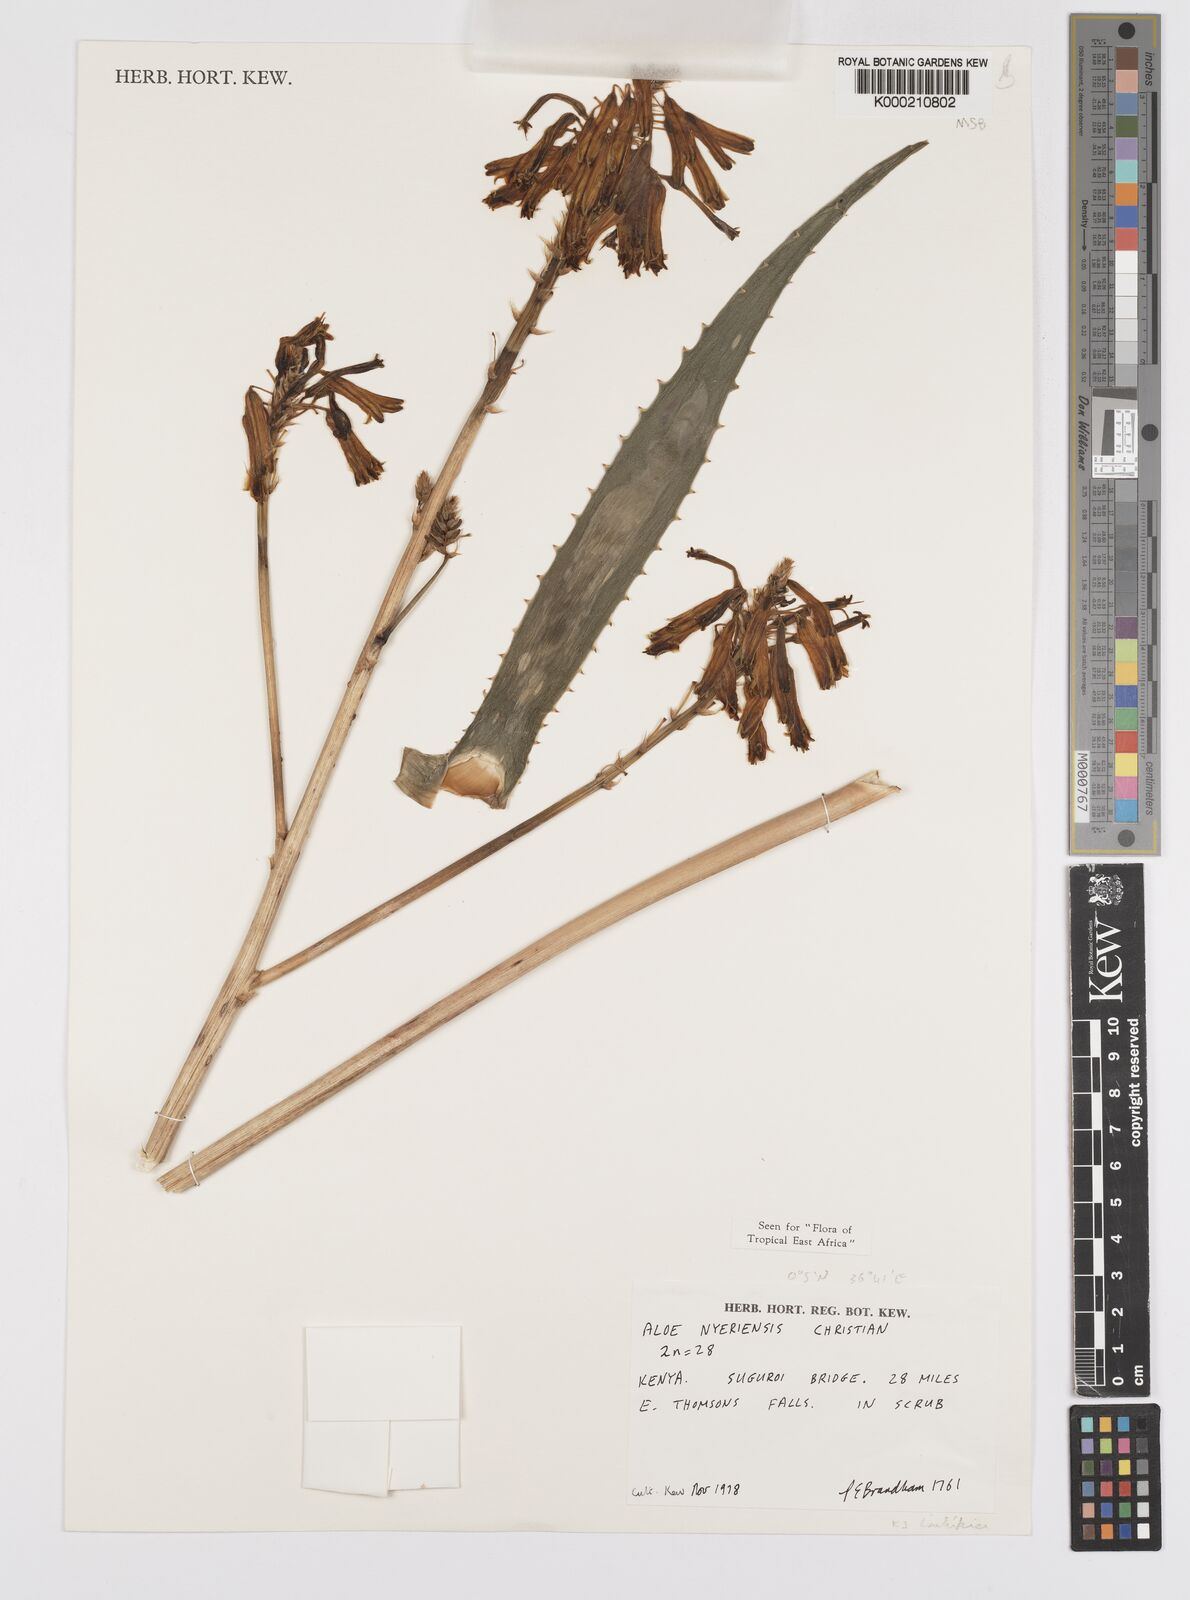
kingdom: Plantae
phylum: Tracheophyta
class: Liliopsida
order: Asparagales
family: Asphodelaceae
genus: Aloe
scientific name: Aloe nyeriensis
